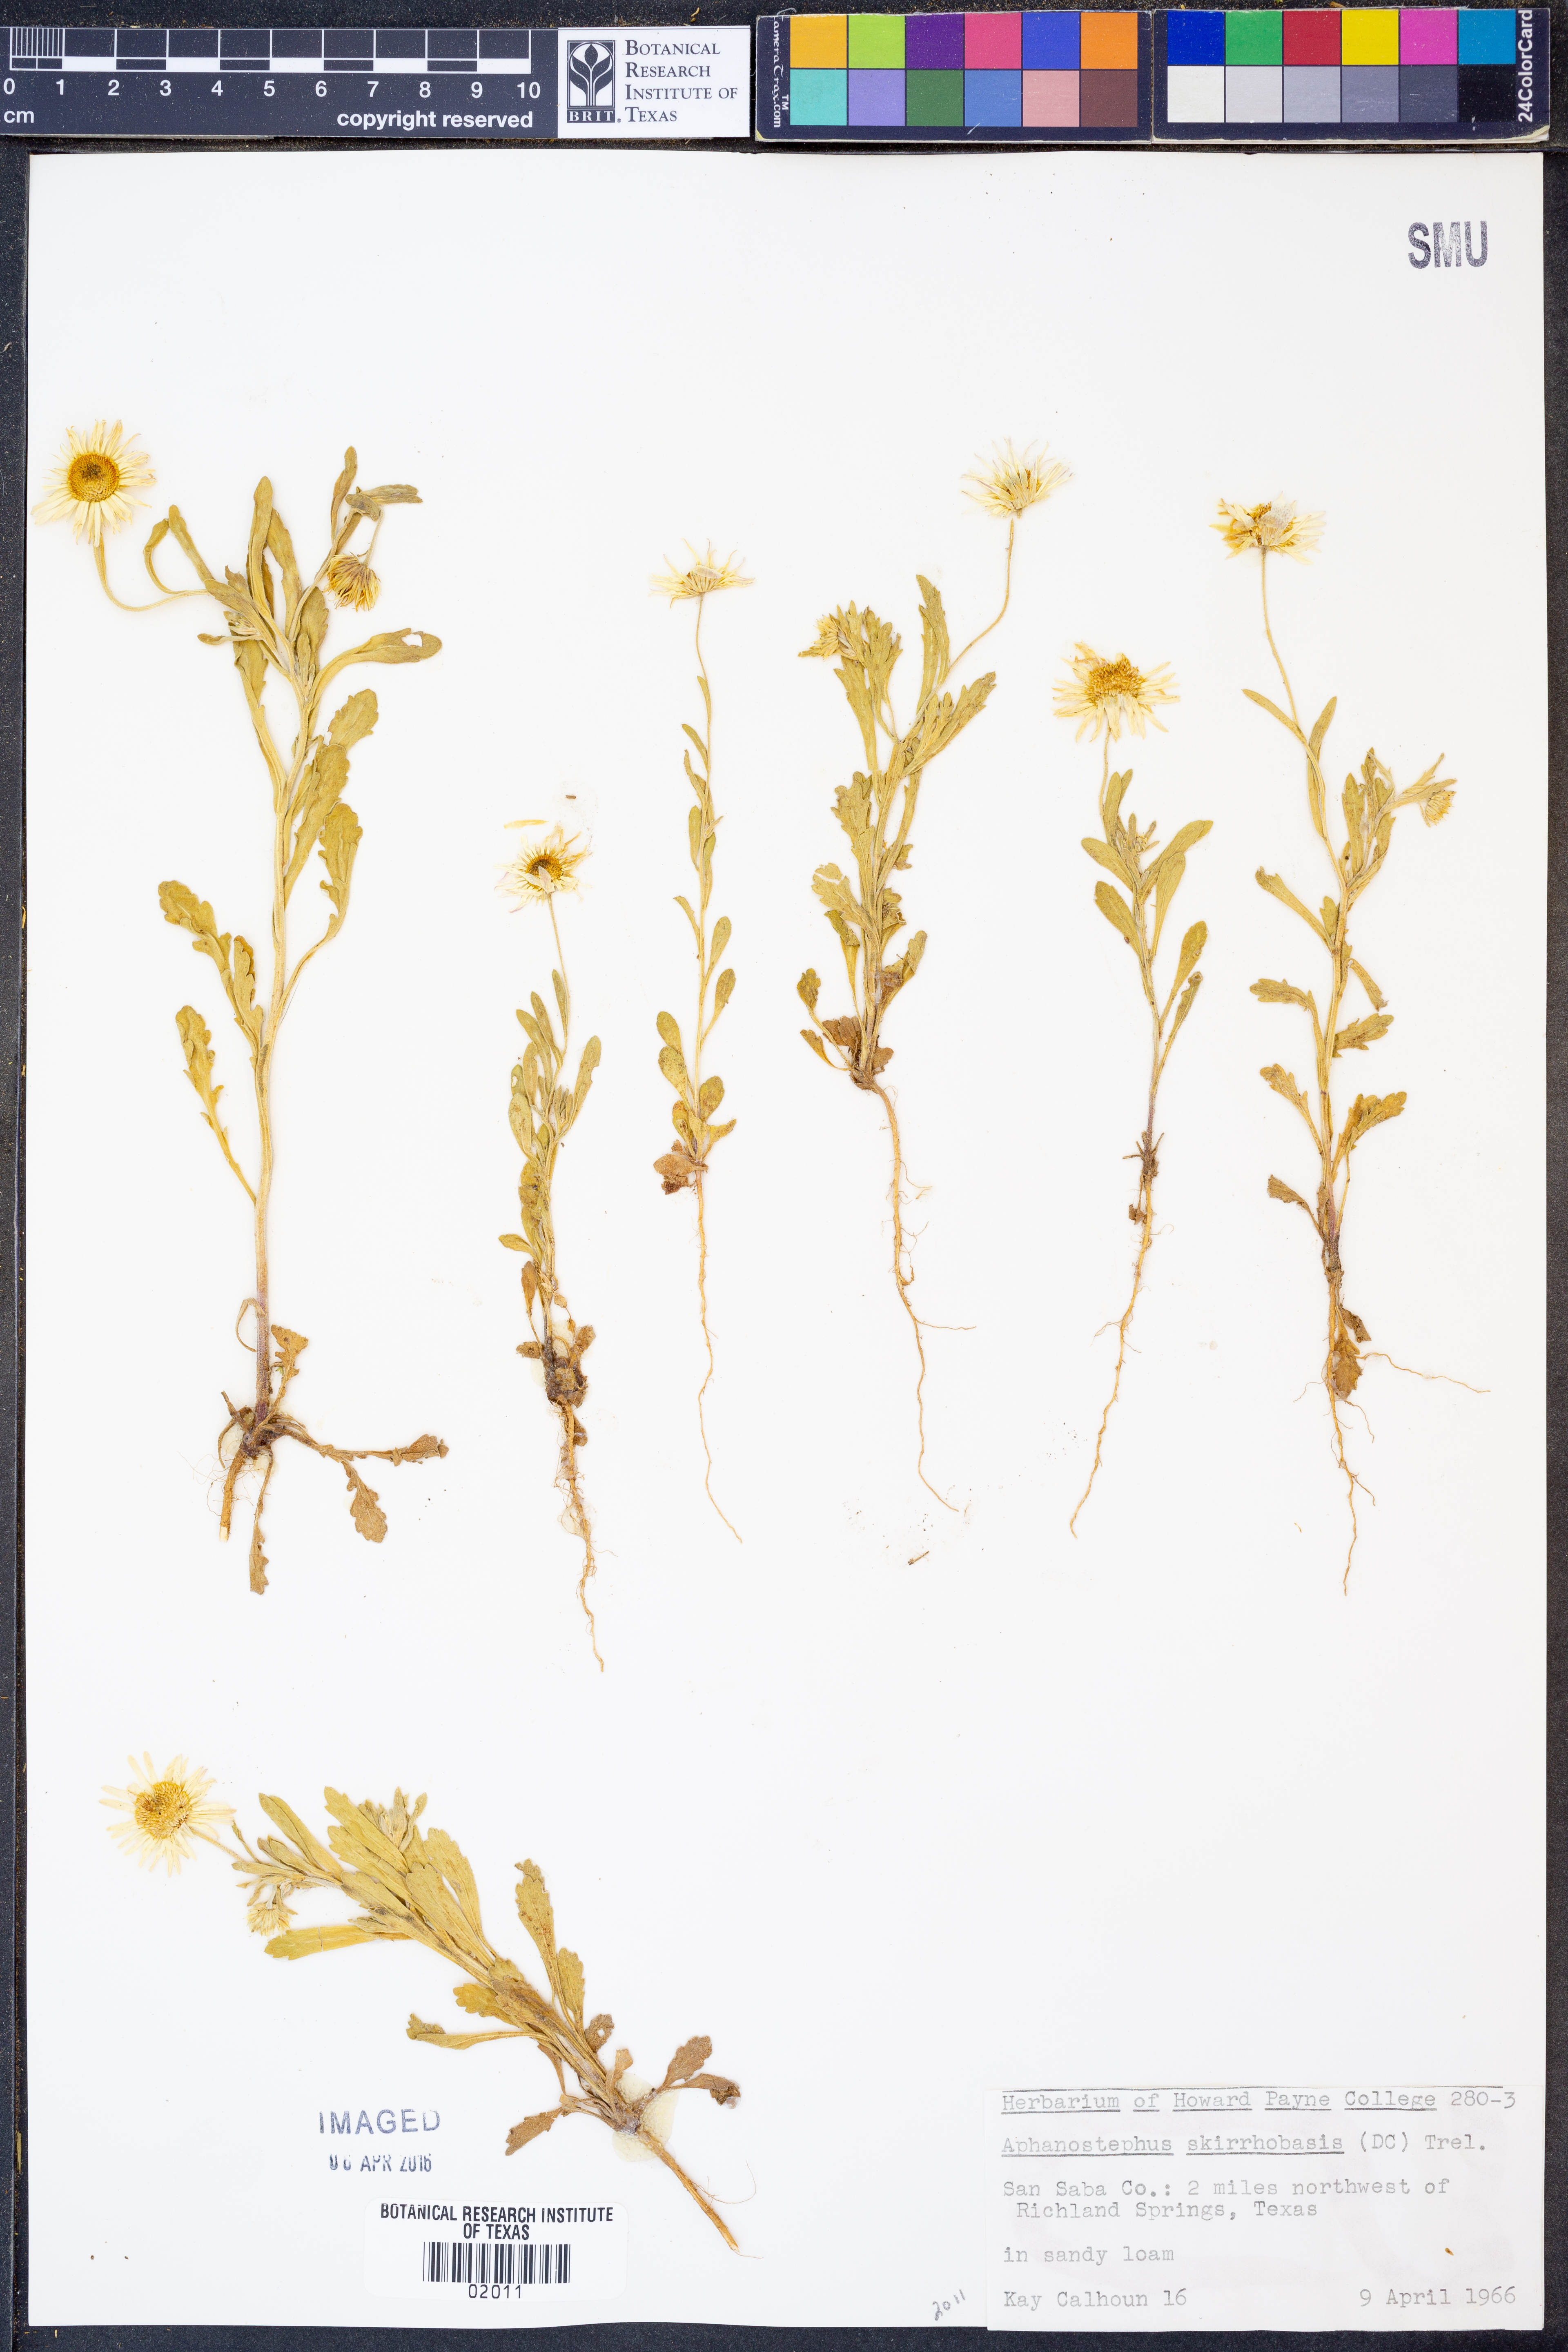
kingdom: Plantae
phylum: Tracheophyta
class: Magnoliopsida
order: Asterales
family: Asteraceae
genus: Aphanostephus
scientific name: Aphanostephus skirrhobasis
